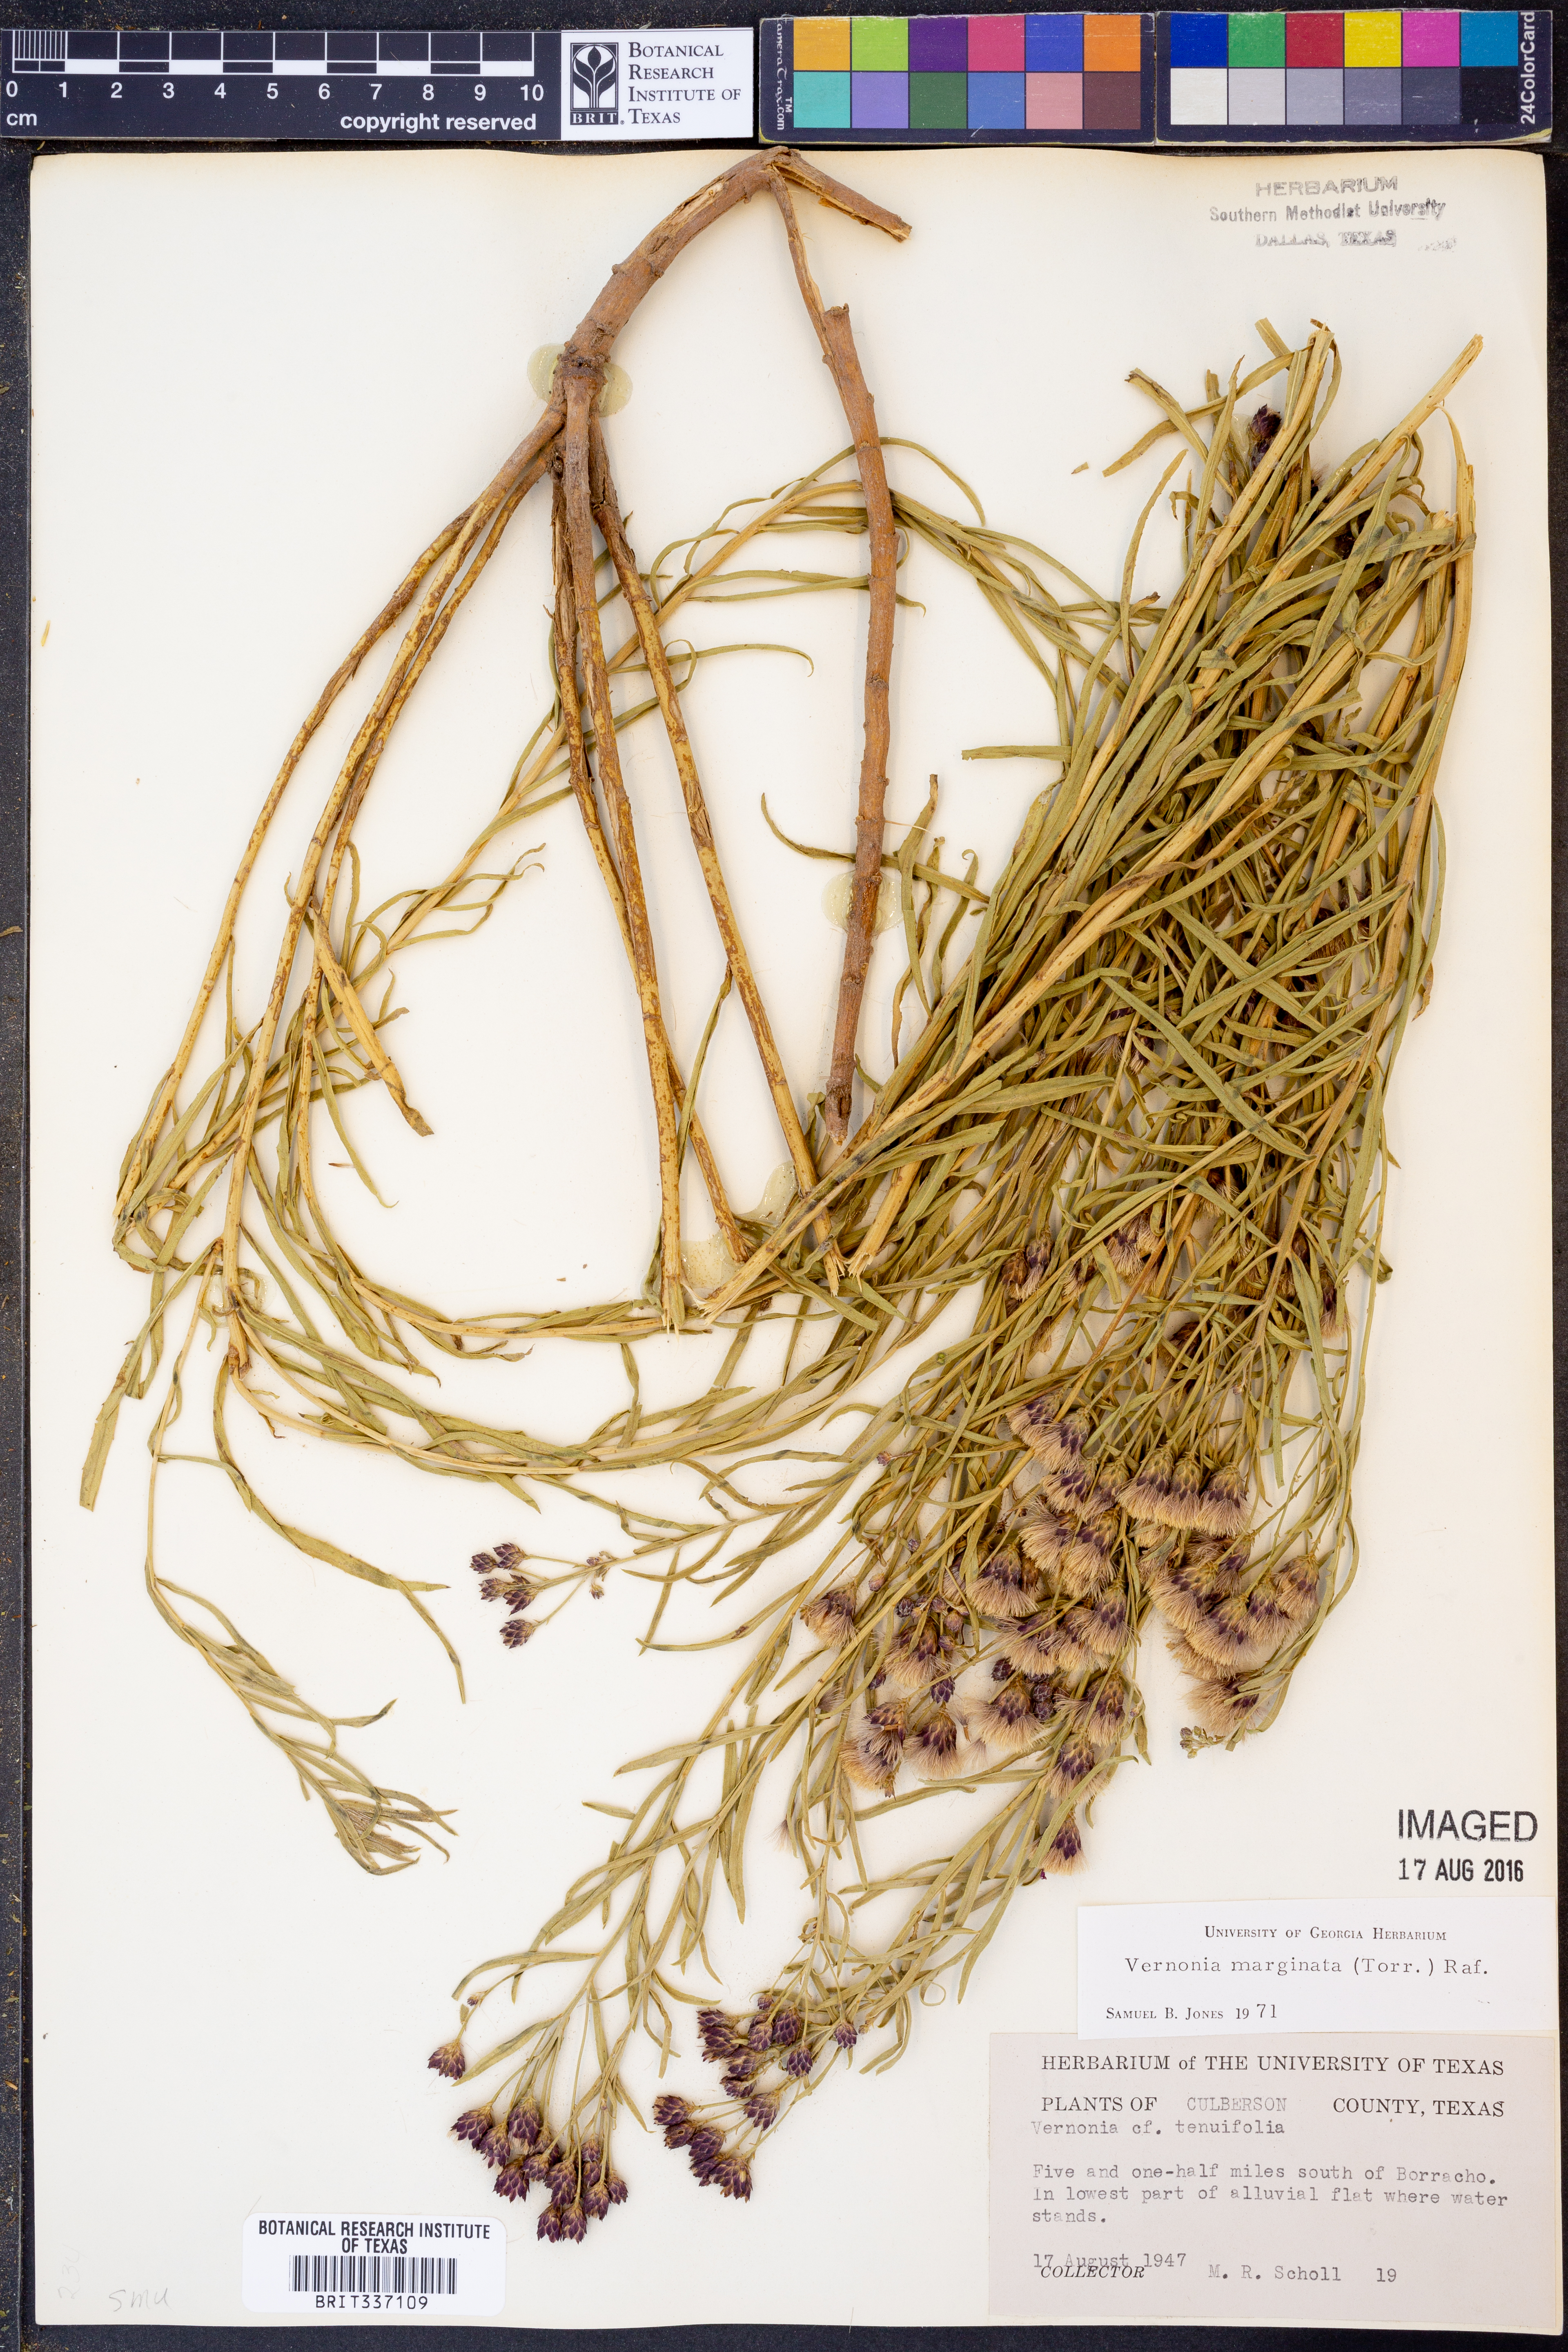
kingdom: Plantae
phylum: Tracheophyta
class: Magnoliopsida
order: Asterales
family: Asteraceae
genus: Vernonia
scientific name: Vernonia marginata
